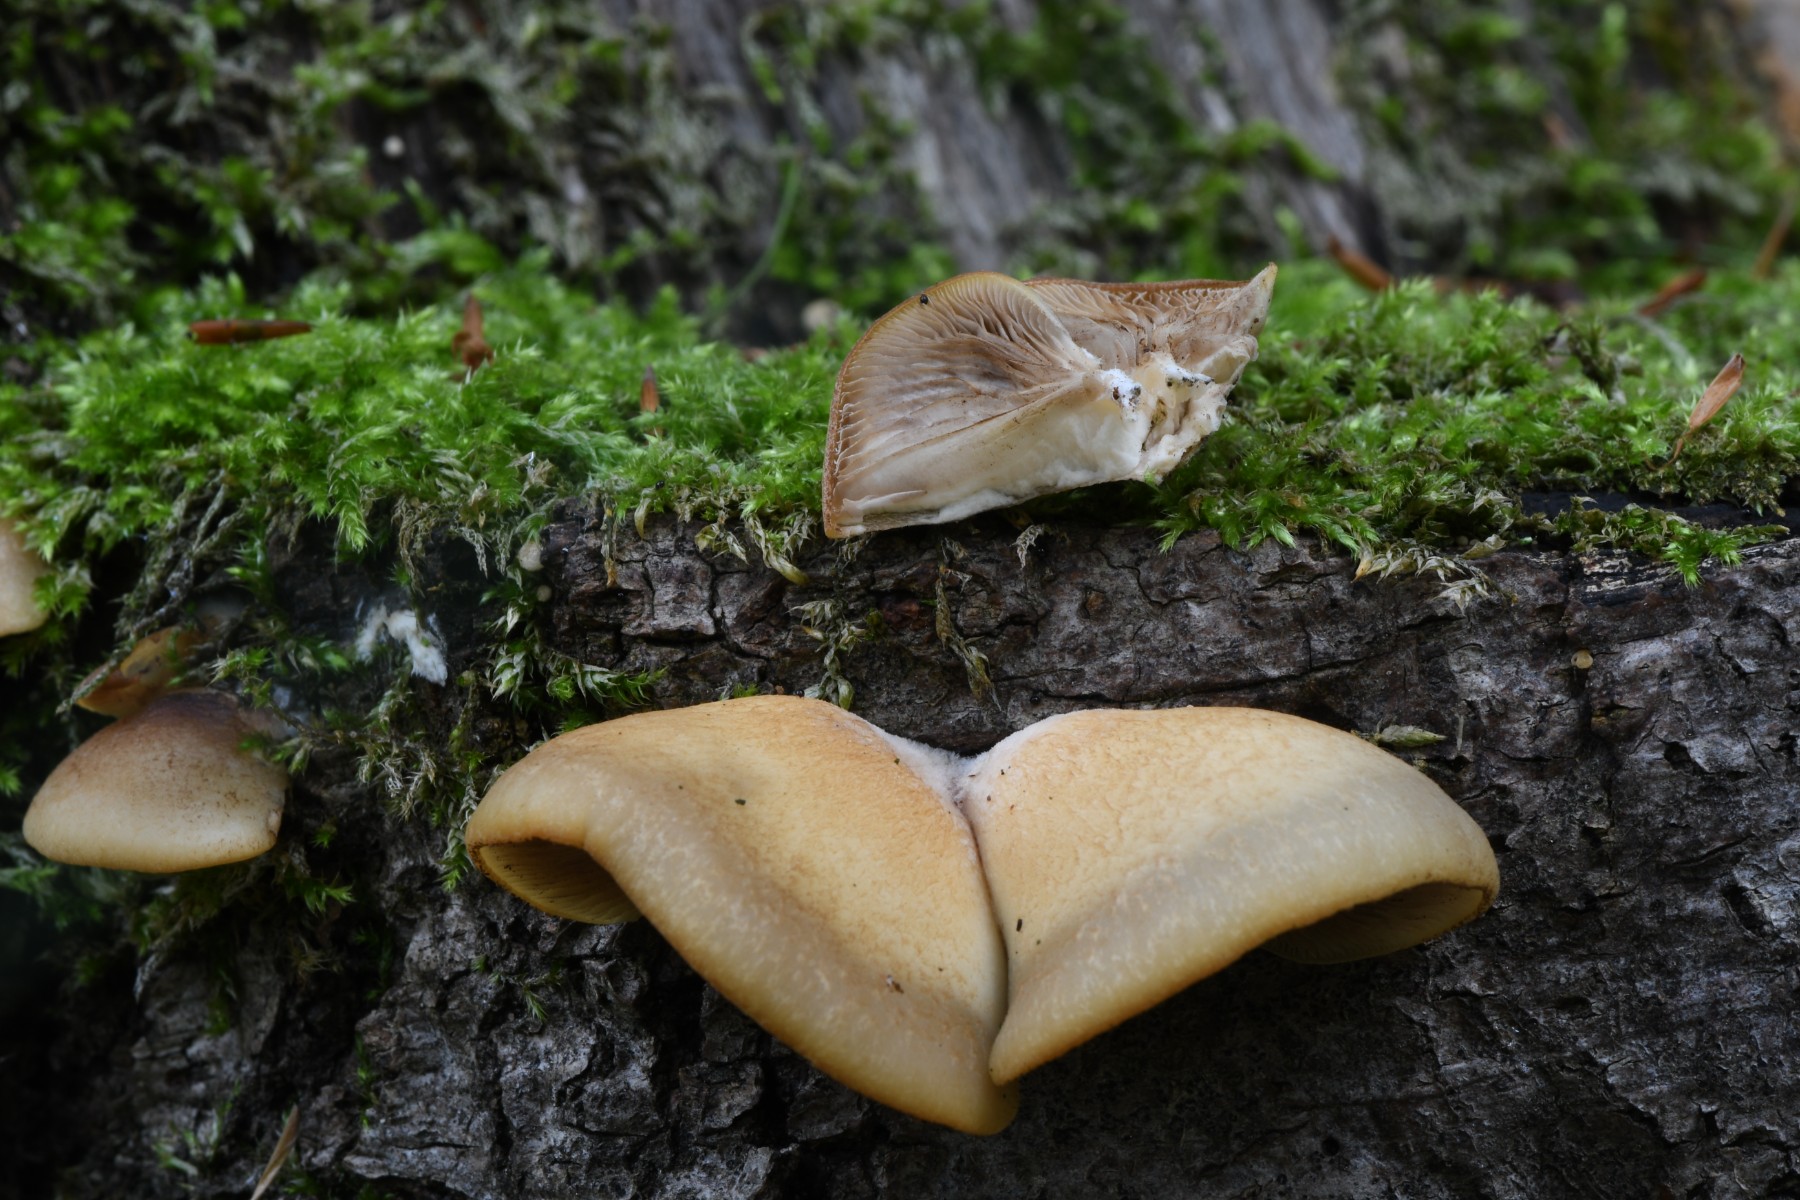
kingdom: Fungi
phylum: Basidiomycota
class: Agaricomycetes
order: Agaricales
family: Crepidotaceae
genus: Crepidotus
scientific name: Crepidotus
